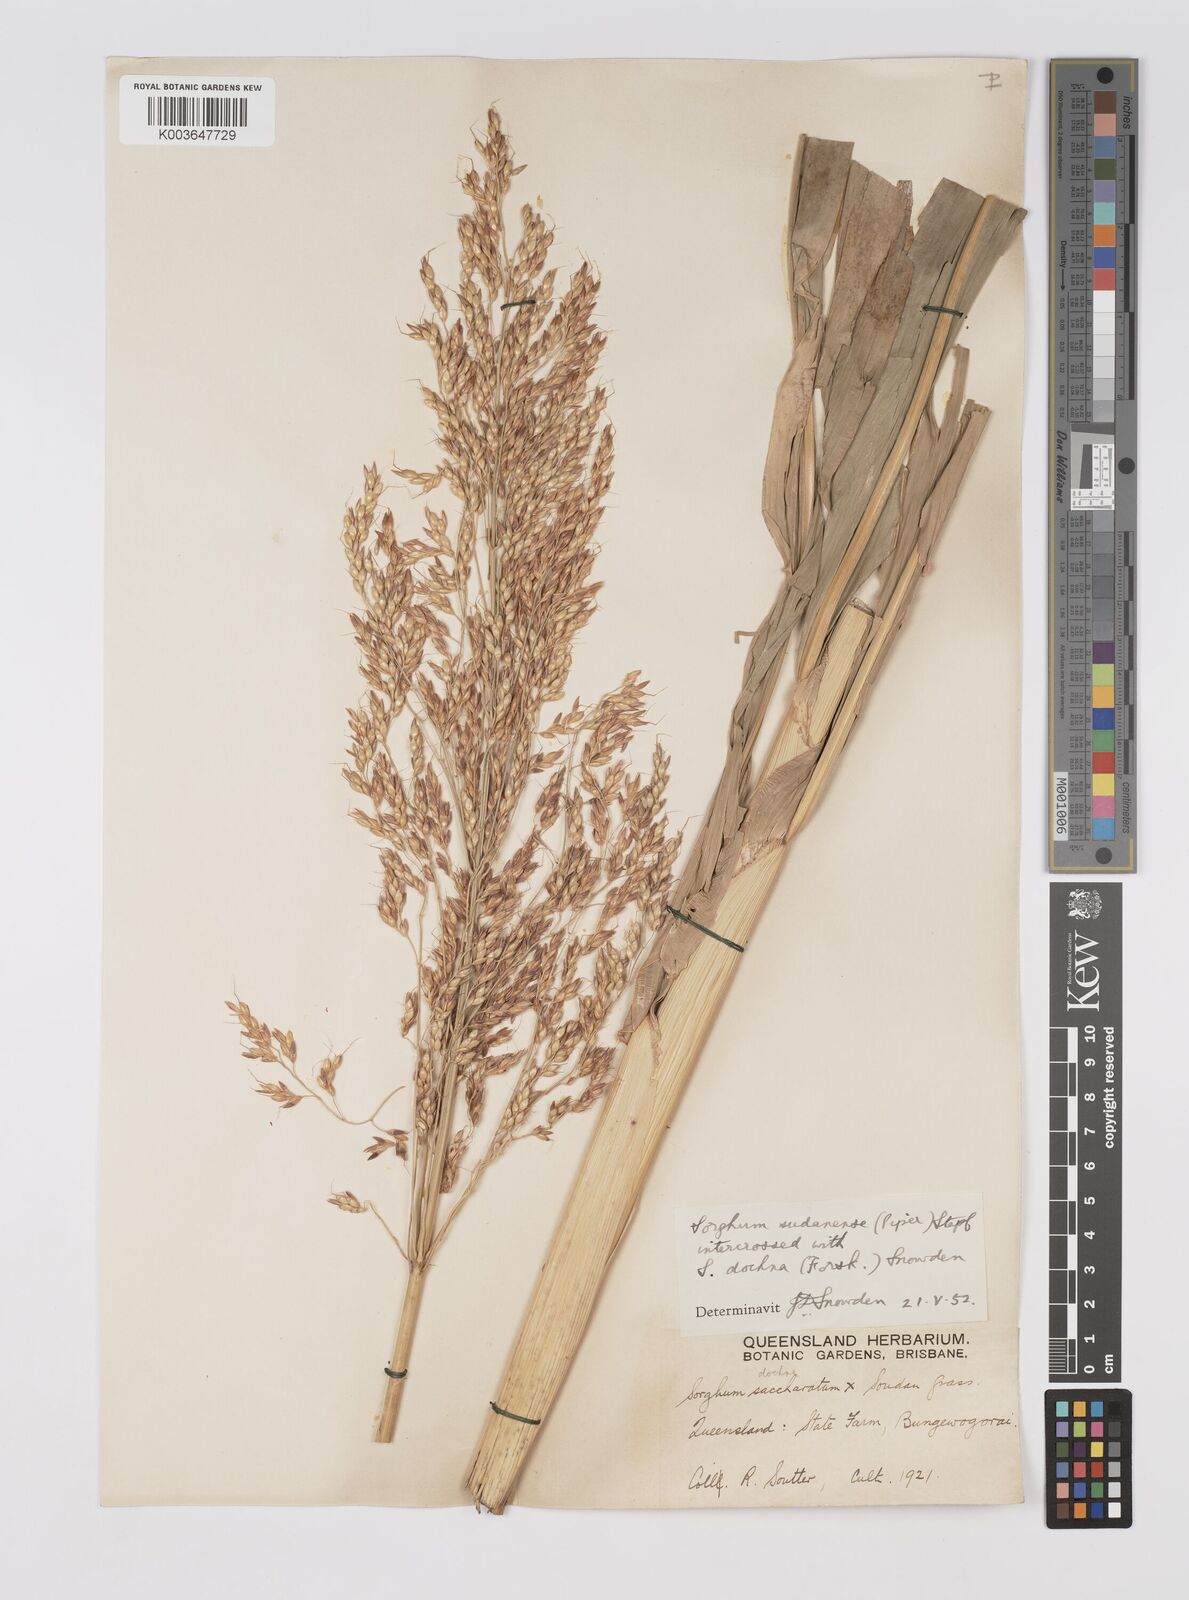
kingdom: Plantae
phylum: Tracheophyta
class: Liliopsida
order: Poales
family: Poaceae
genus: Sorghum
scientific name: Sorghum drummondii
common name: Sudangrass
